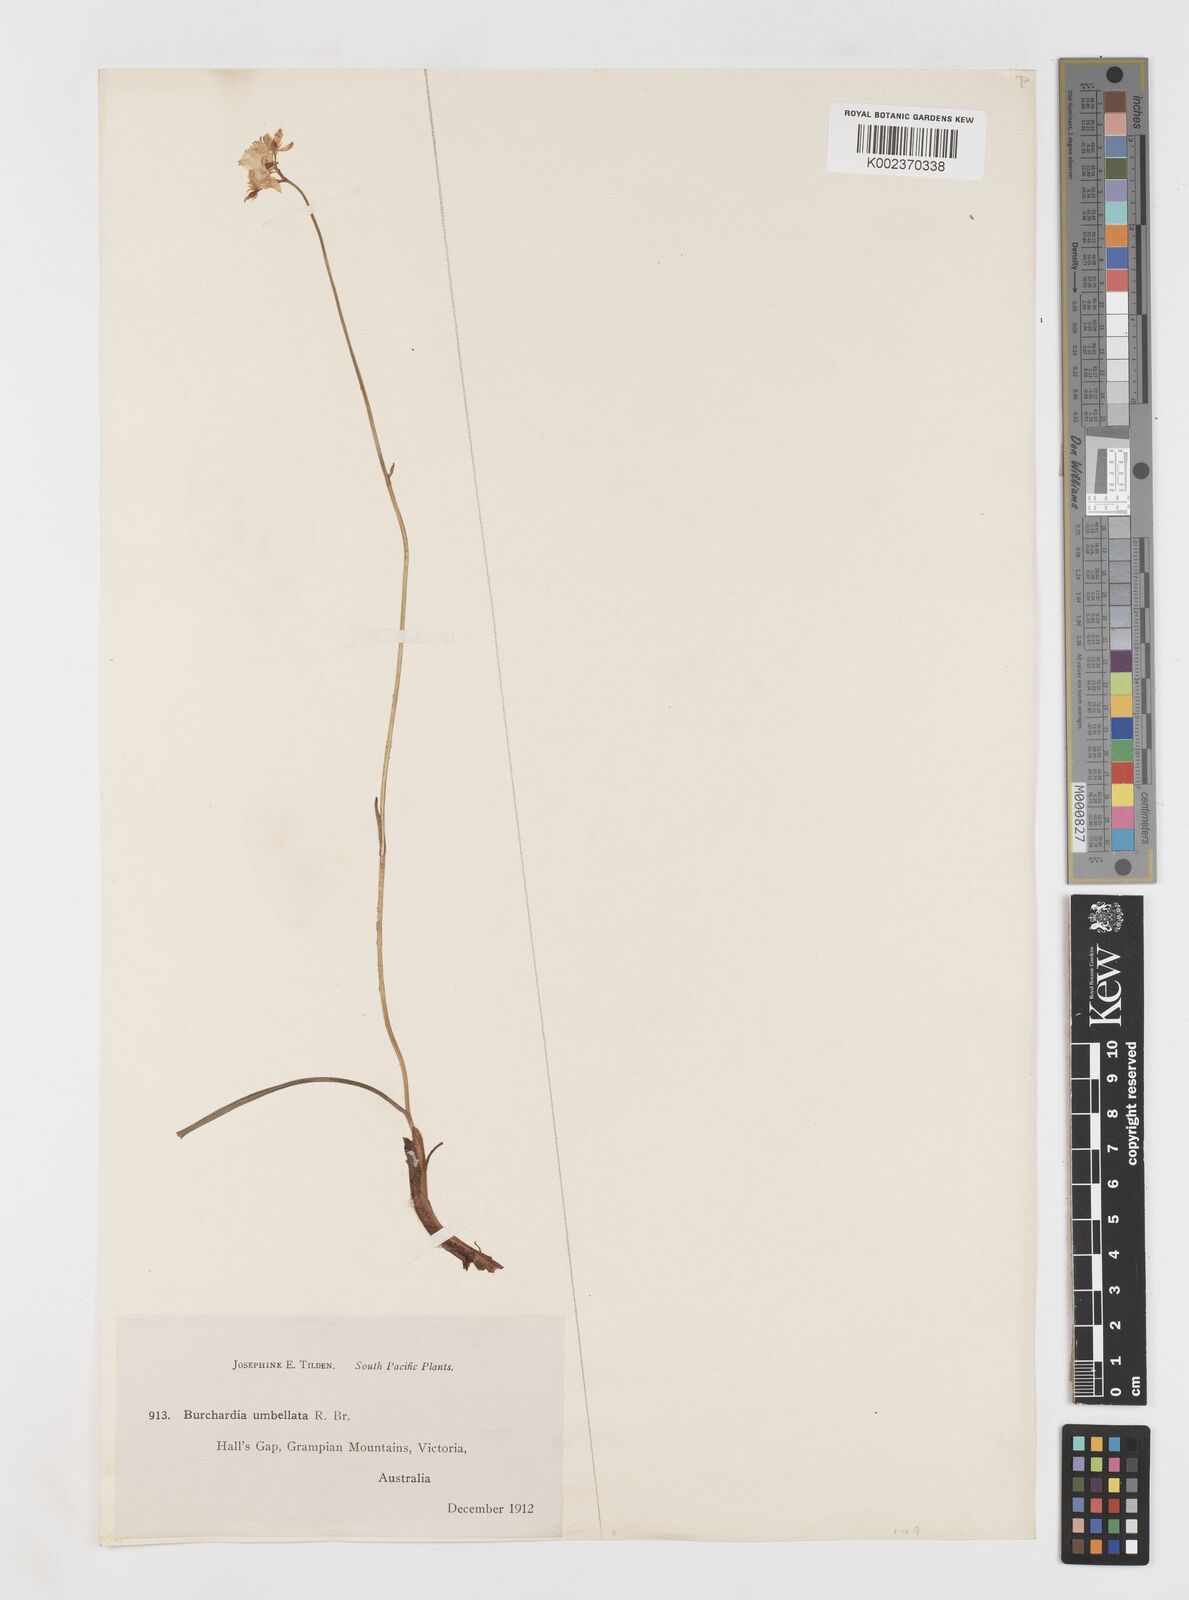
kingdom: Plantae
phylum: Tracheophyta
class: Liliopsida
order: Liliales
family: Colchicaceae
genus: Burchardia
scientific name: Burchardia umbellata
